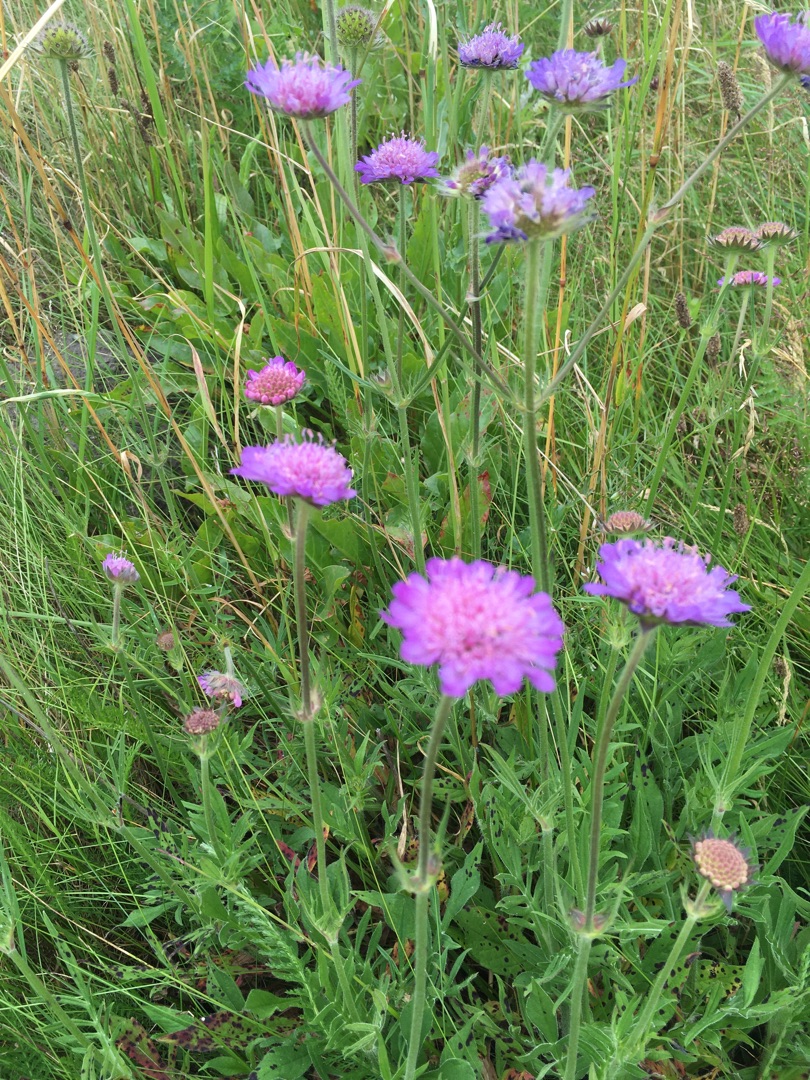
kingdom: Plantae
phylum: Tracheophyta
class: Magnoliopsida
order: Dipsacales
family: Caprifoliaceae
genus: Knautia
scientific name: Knautia arvensis
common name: Blåhat
